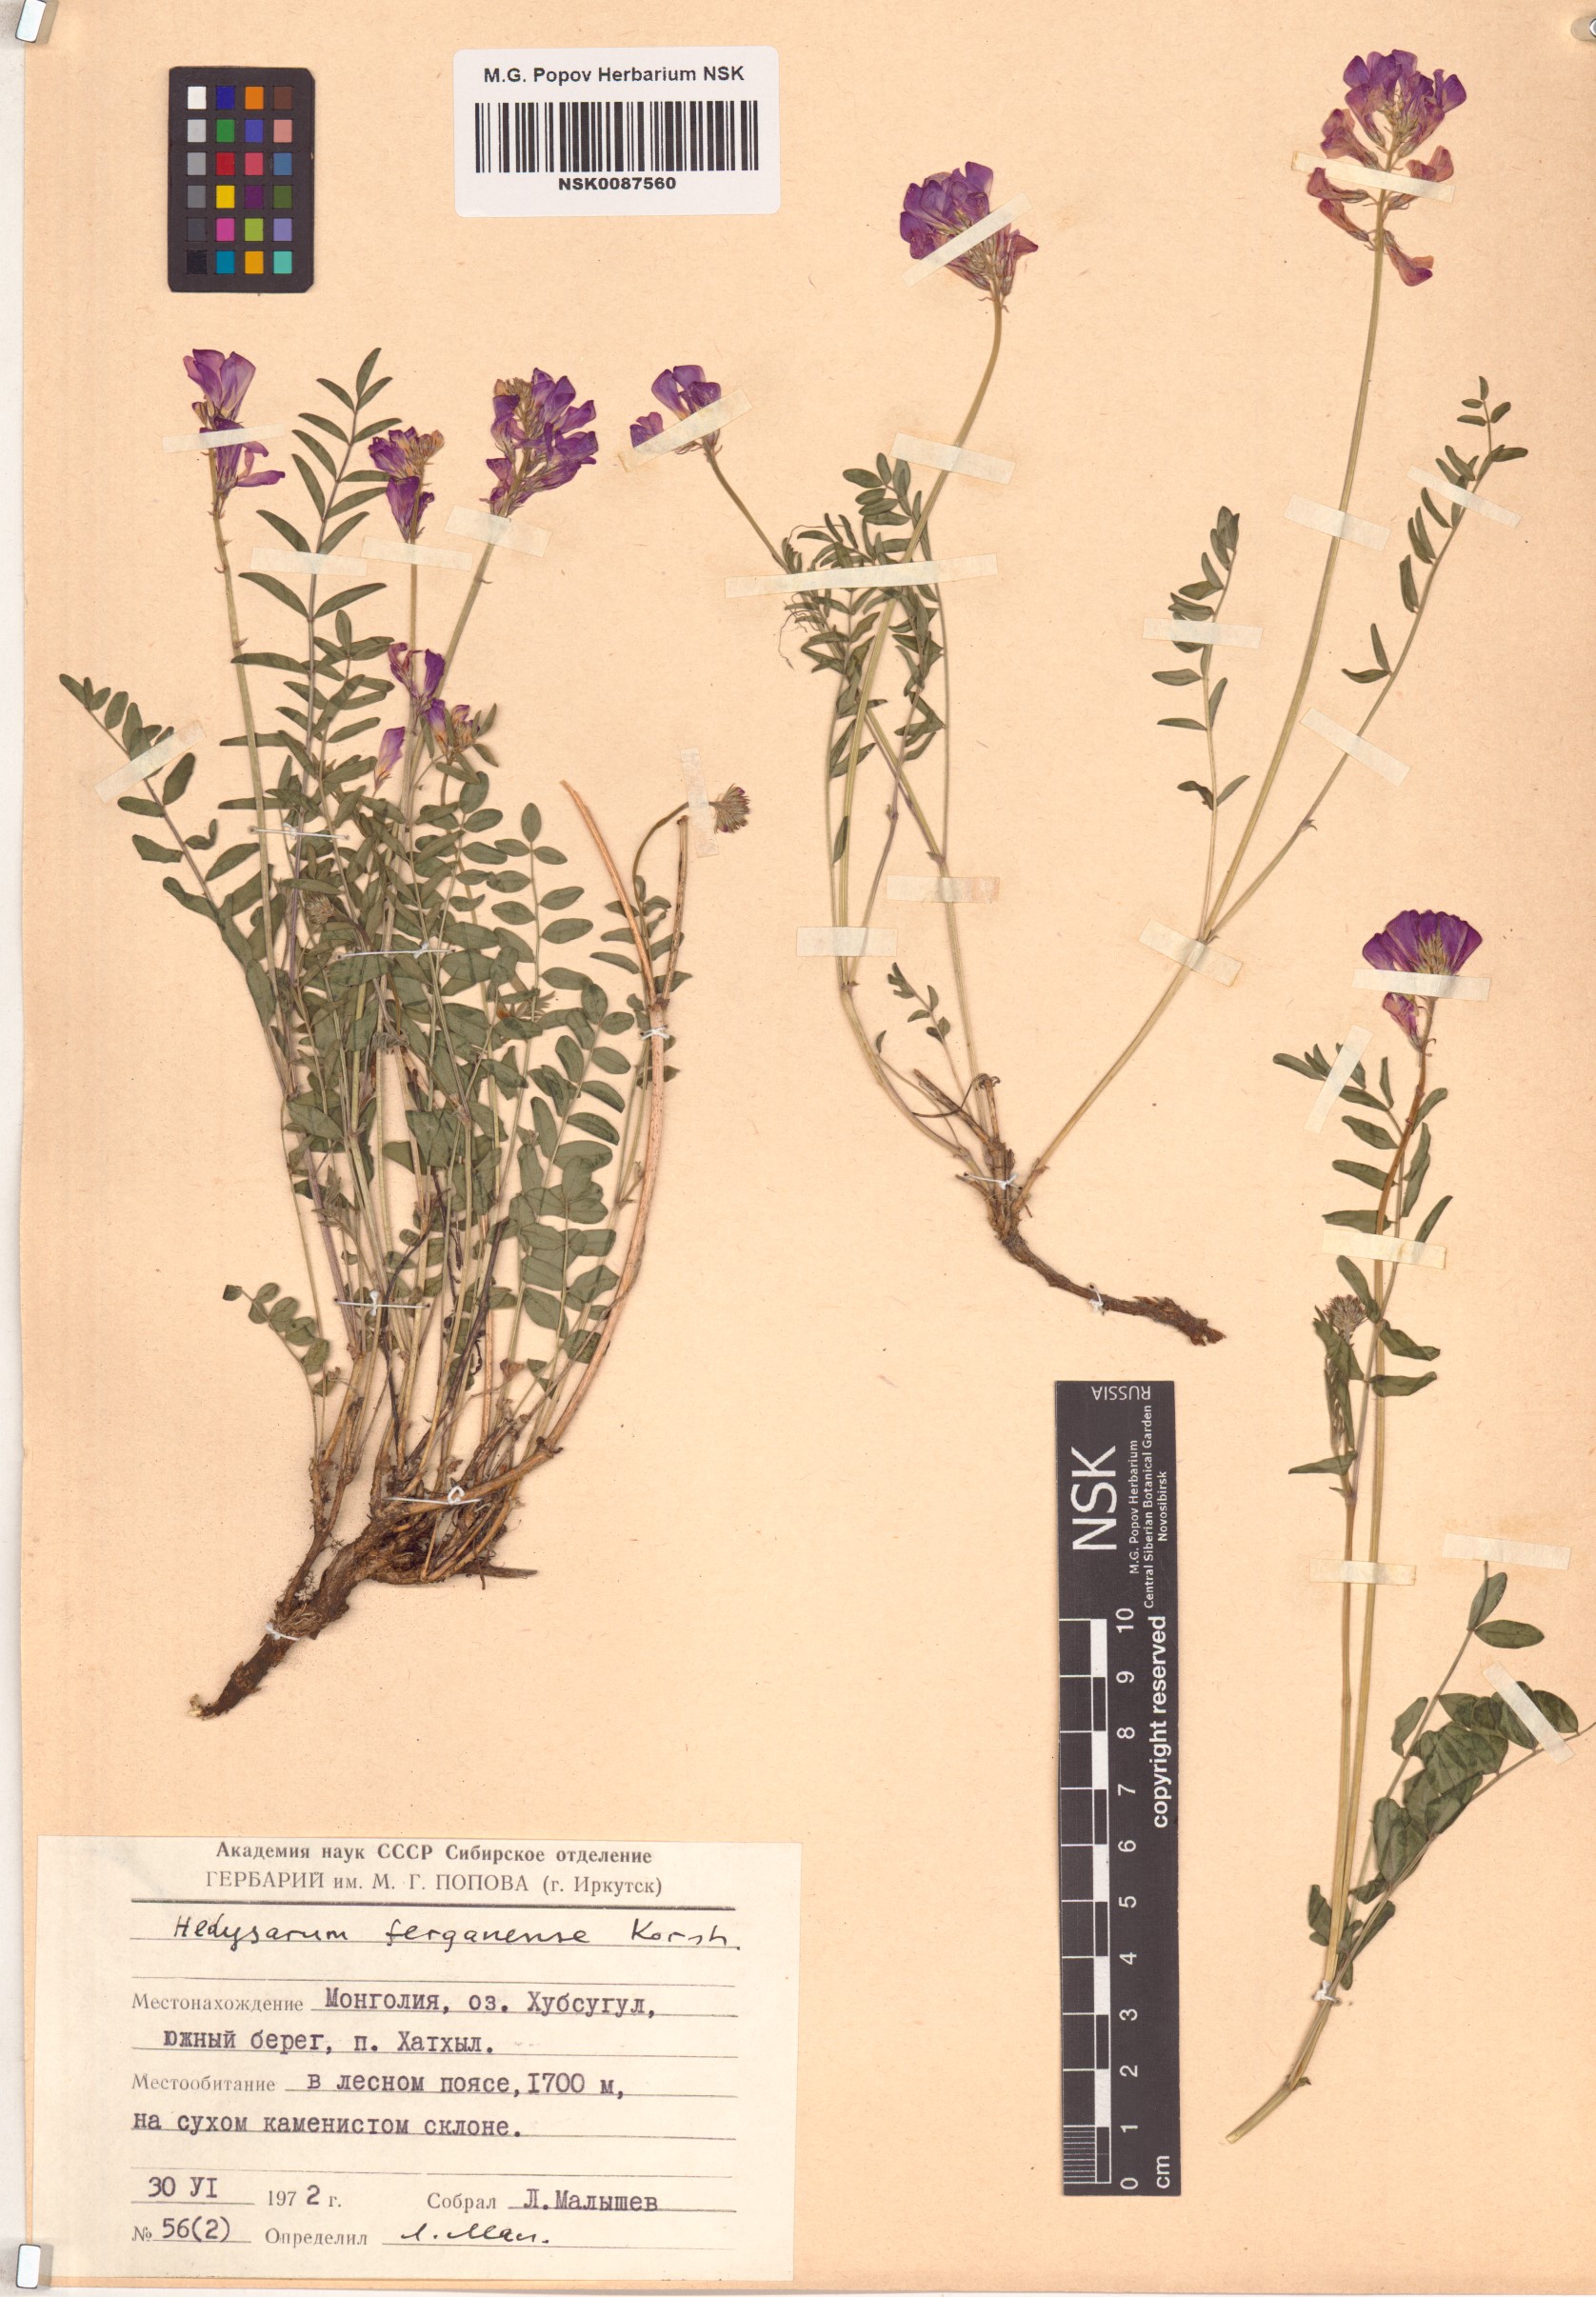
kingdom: Plantae
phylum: Tracheophyta
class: Magnoliopsida
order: Fabales
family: Fabaceae
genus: Hedysarum
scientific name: Hedysarum ferganense
